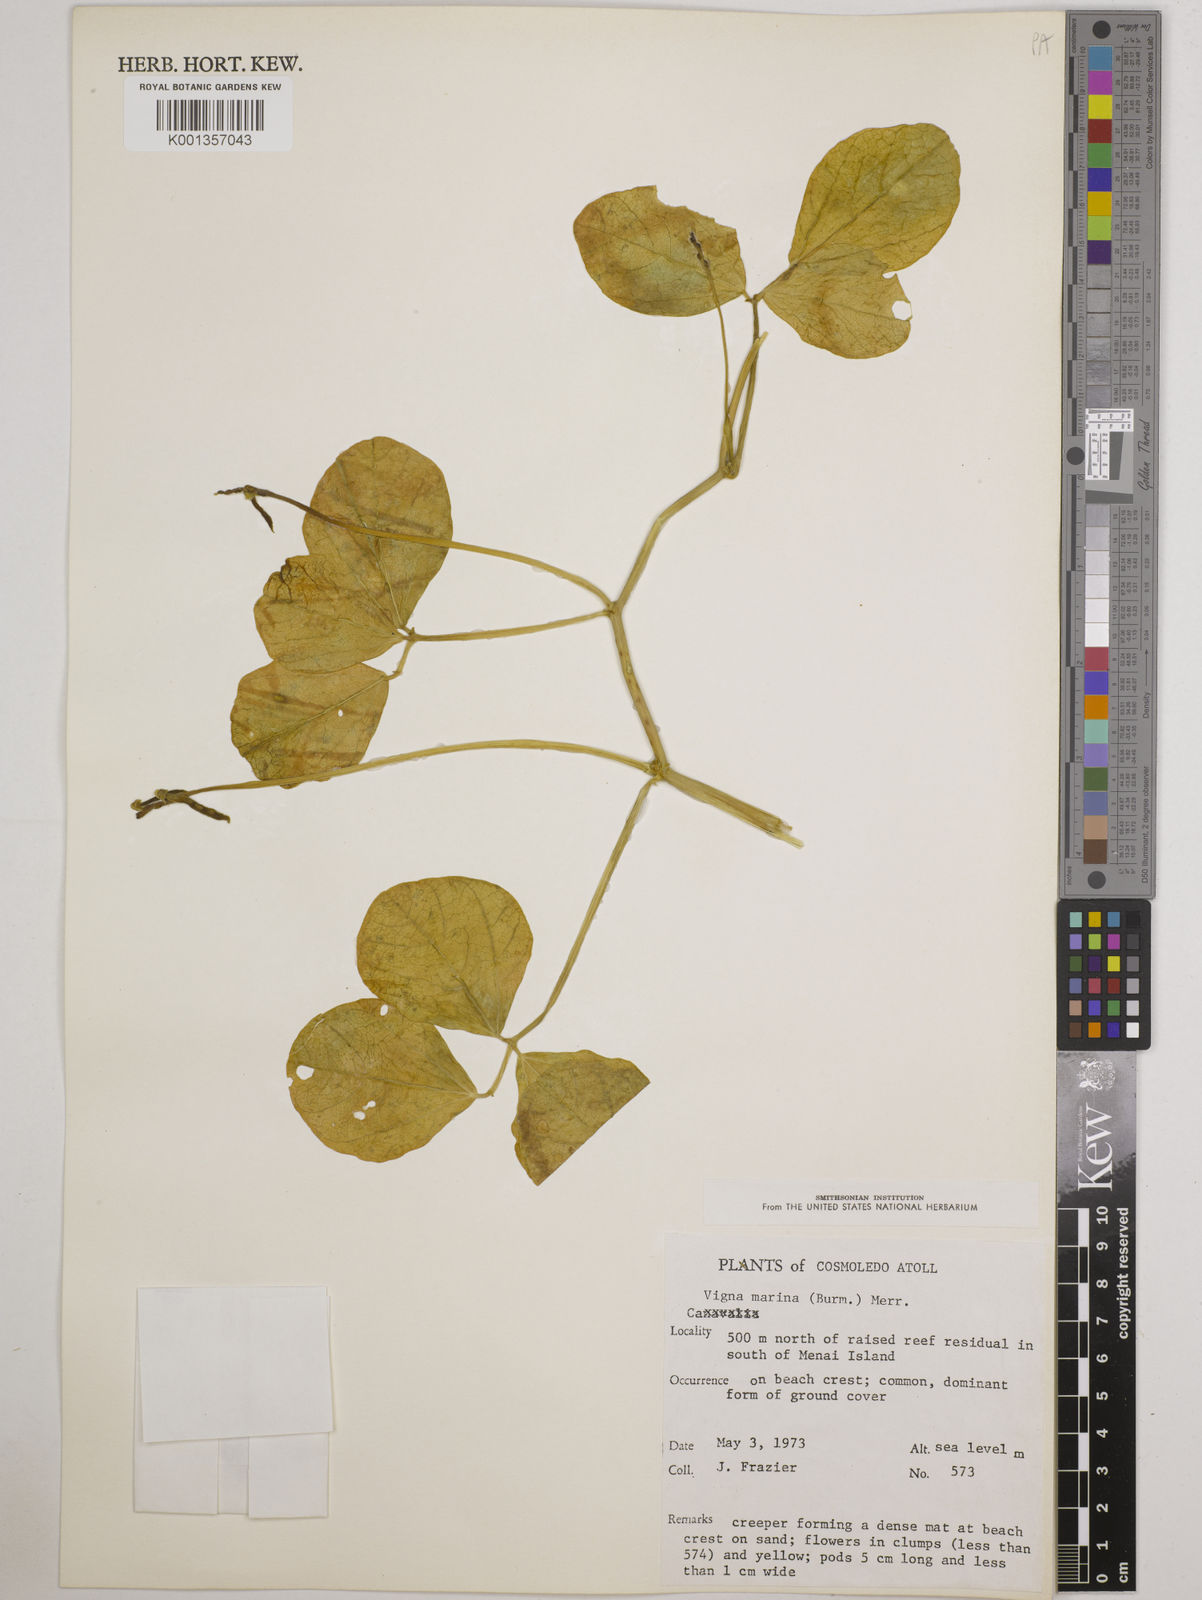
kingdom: Plantae
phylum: Tracheophyta
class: Magnoliopsida
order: Fabales
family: Fabaceae
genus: Vigna
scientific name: Vigna marina
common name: Dune-bean
